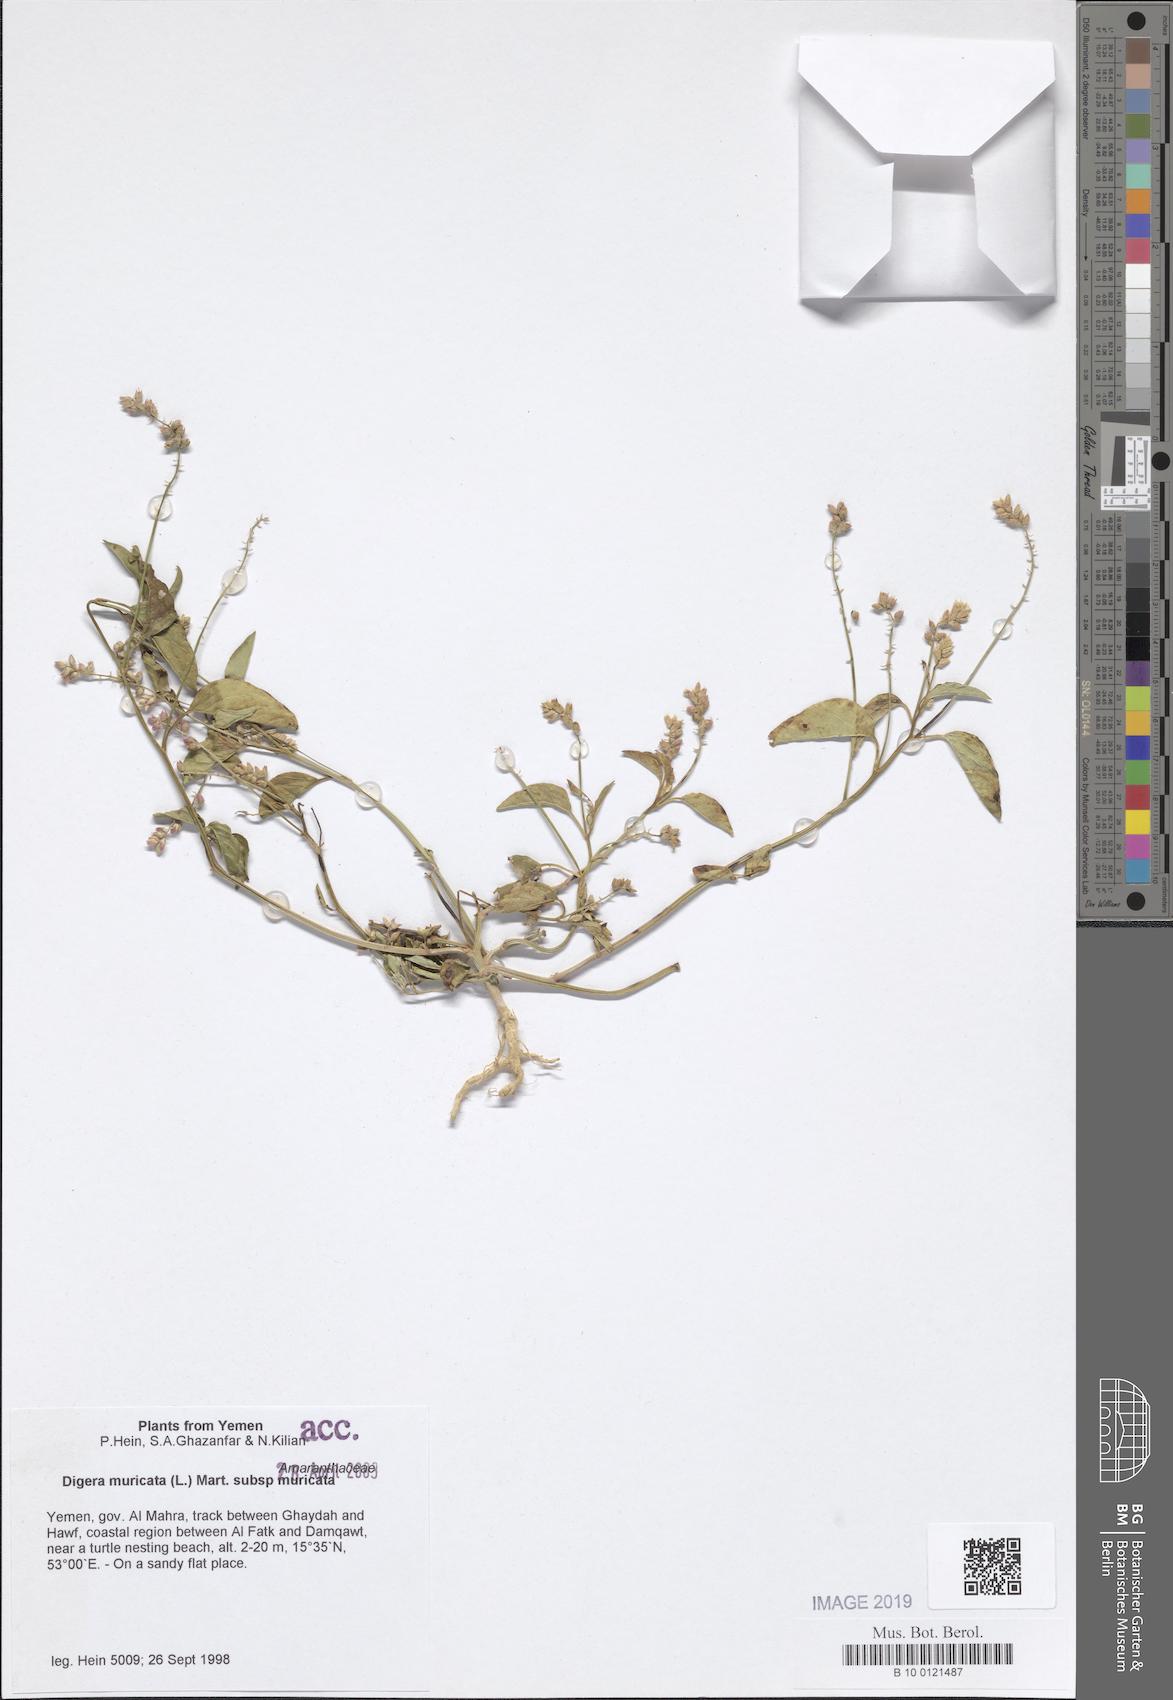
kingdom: Plantae
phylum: Tracheophyta
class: Magnoliopsida
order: Caryophyllales
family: Amaranthaceae
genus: Digera
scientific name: Digera muricata
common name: False amaranth
